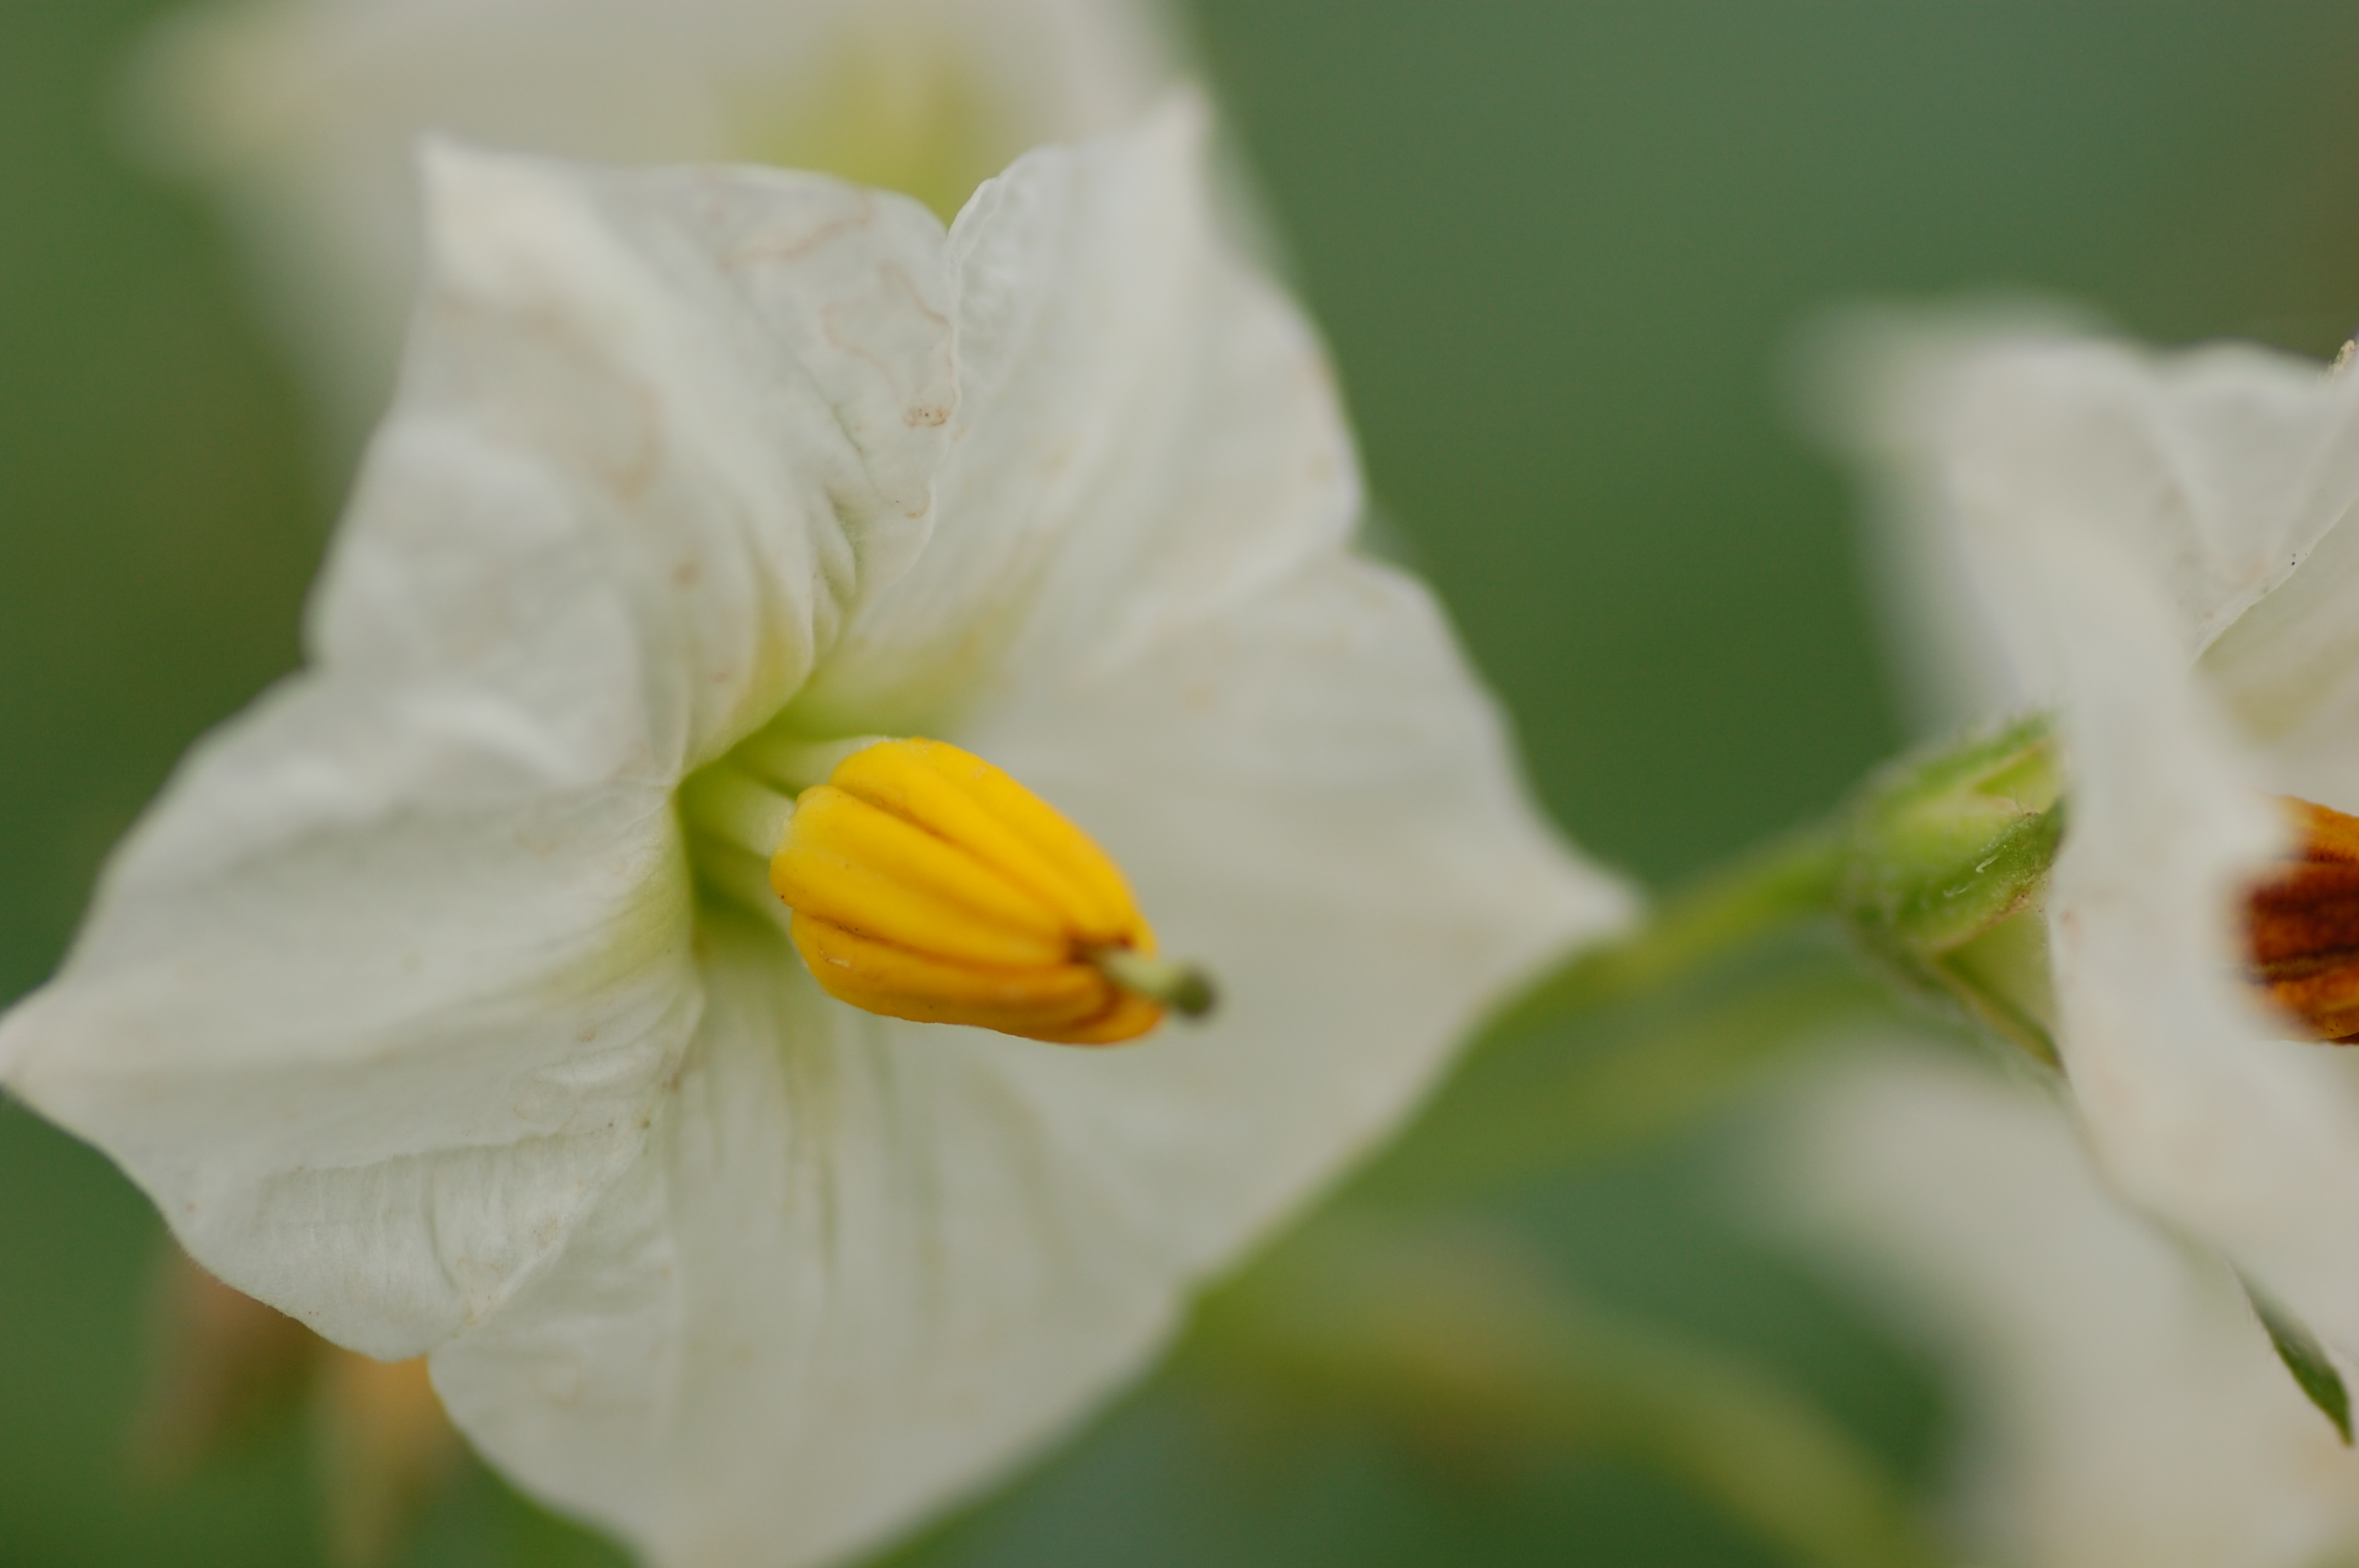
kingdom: Plantae
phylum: Tracheophyta
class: Magnoliopsida
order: Solanales
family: Solanaceae
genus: Solanum
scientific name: Solanum tuberosum
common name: Potato
